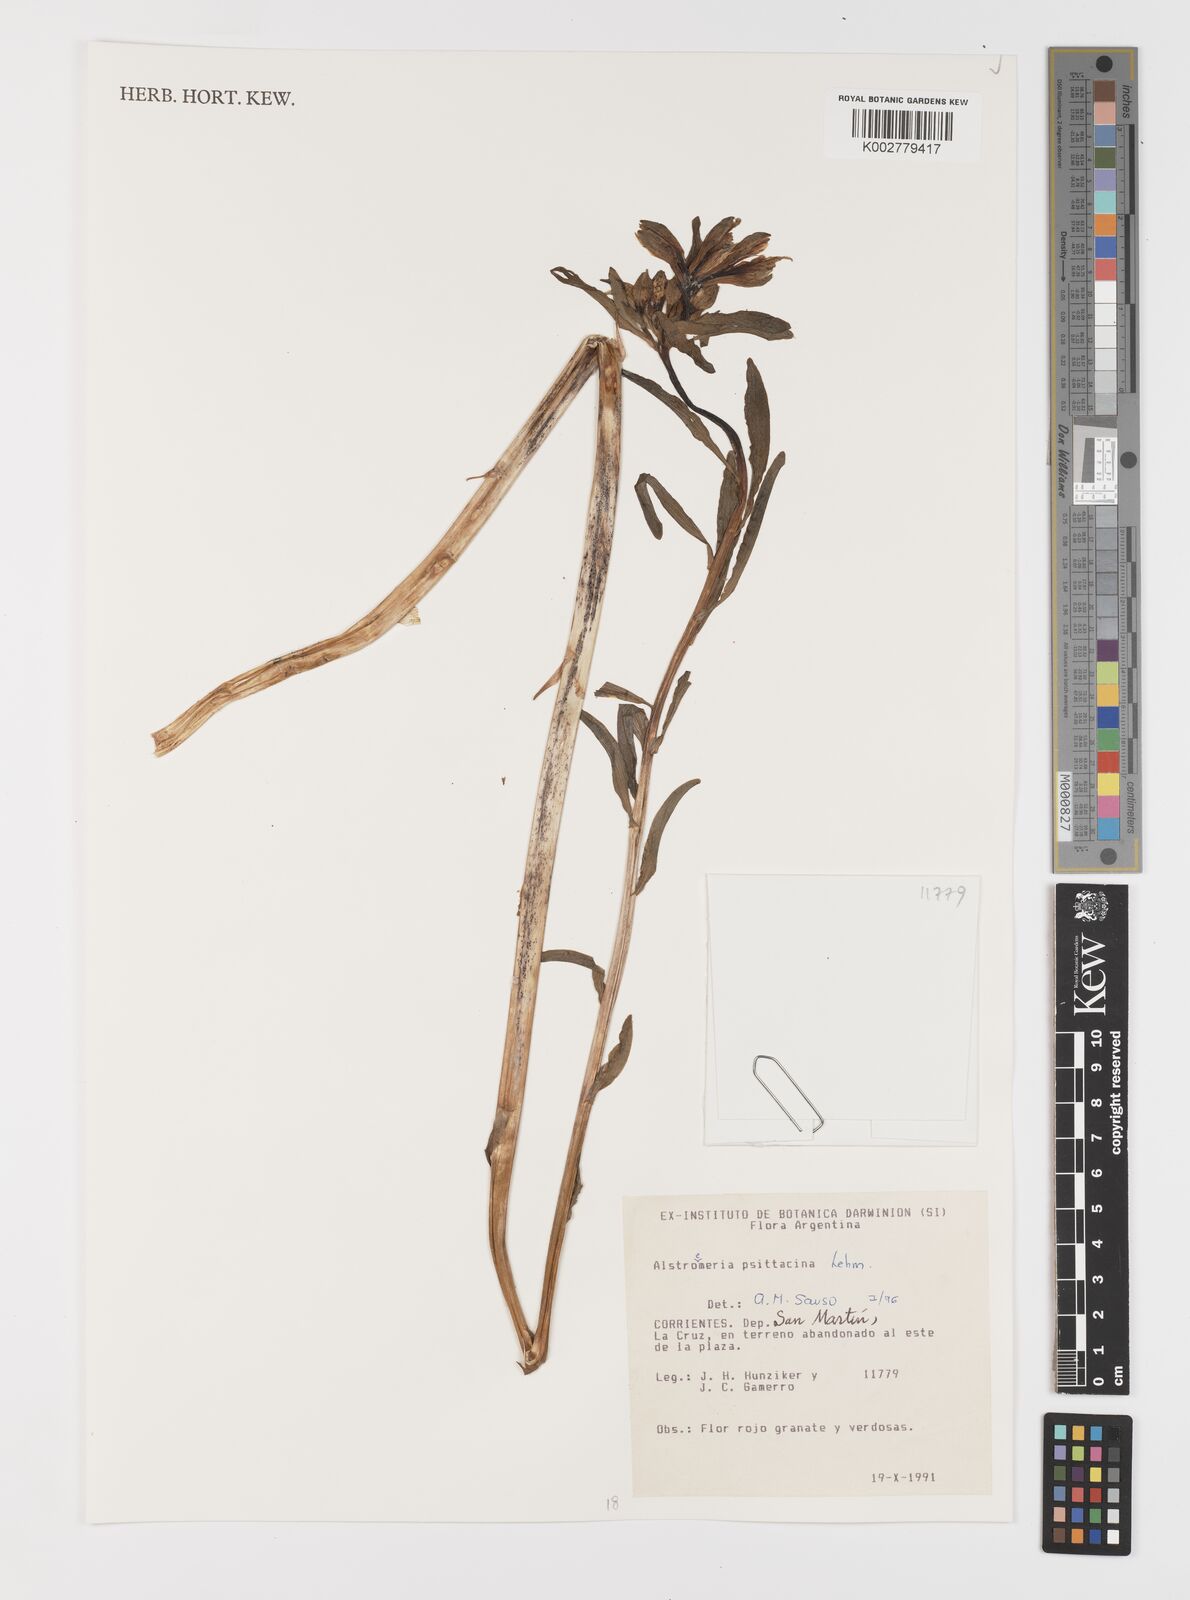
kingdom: Plantae
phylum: Tracheophyta
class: Liliopsida
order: Liliales
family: Alstroemeriaceae
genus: Alstroemeria
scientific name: Alstroemeria psittacina
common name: Peruvian-lily
